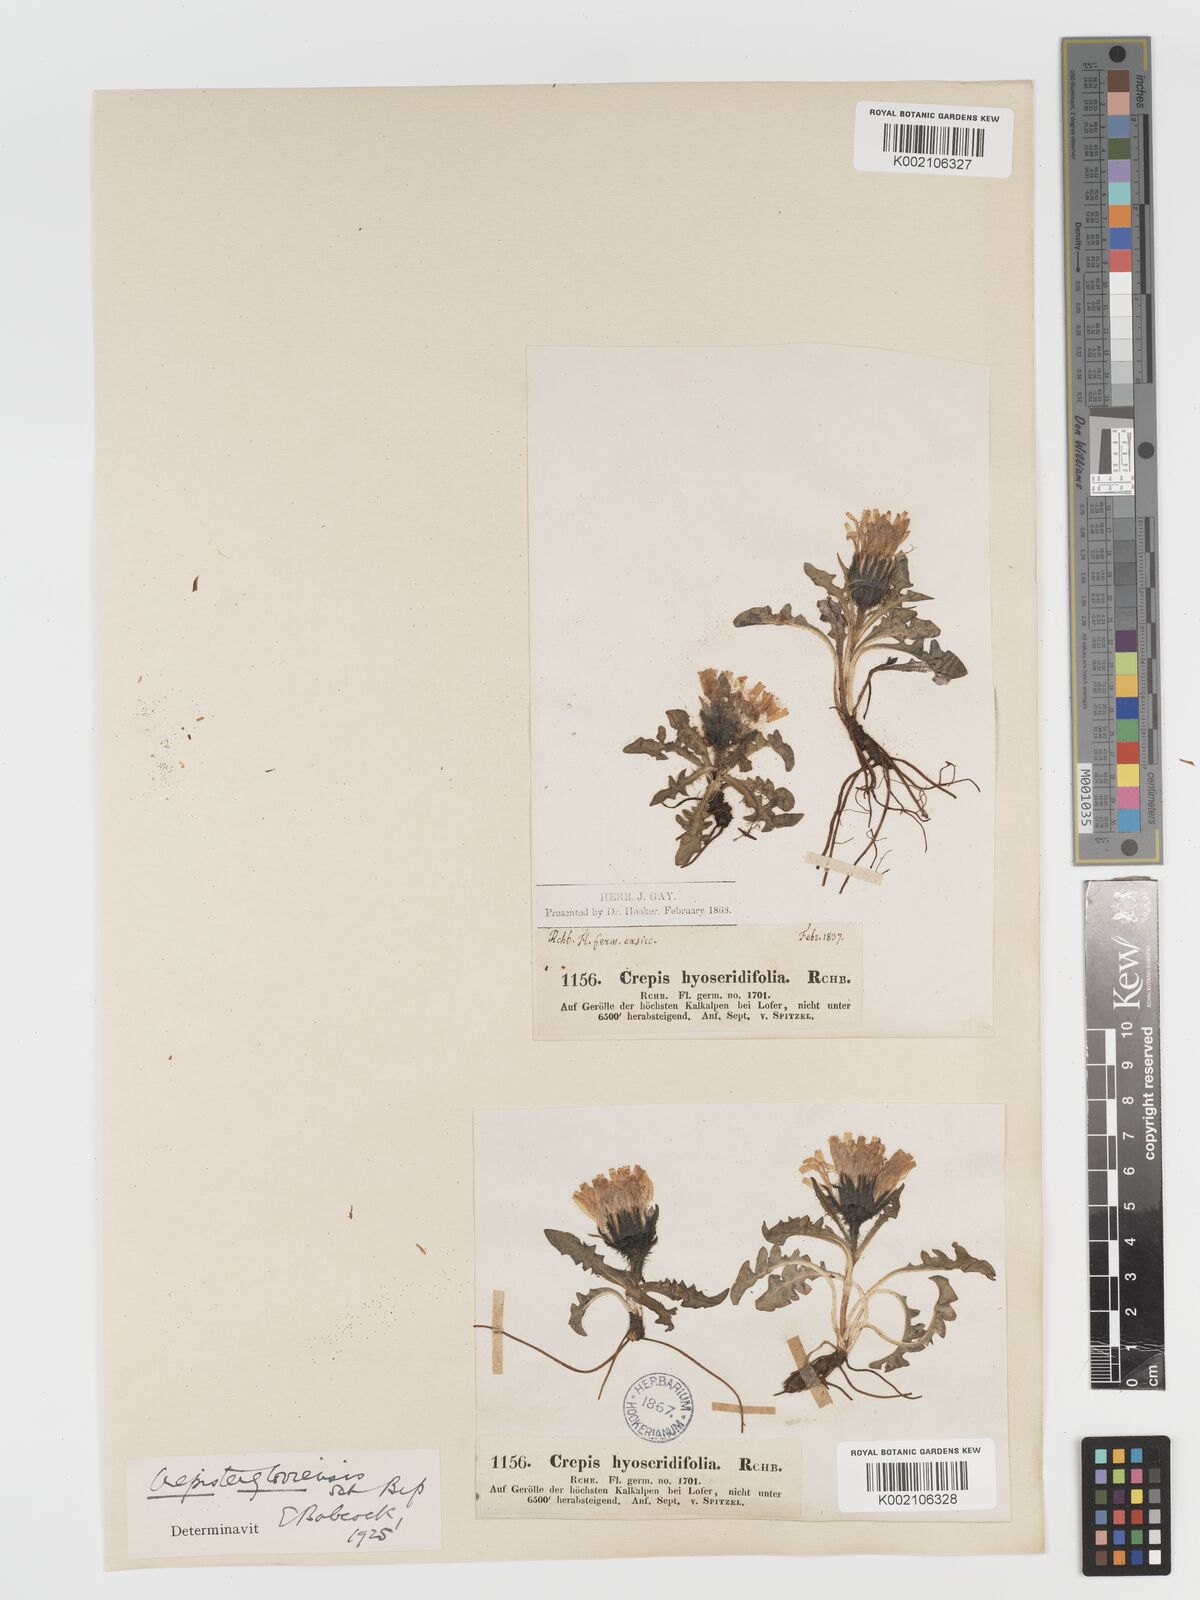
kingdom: Plantae
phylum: Tracheophyta
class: Magnoliopsida
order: Asterales
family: Asteraceae
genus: Crepis
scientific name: Crepis
